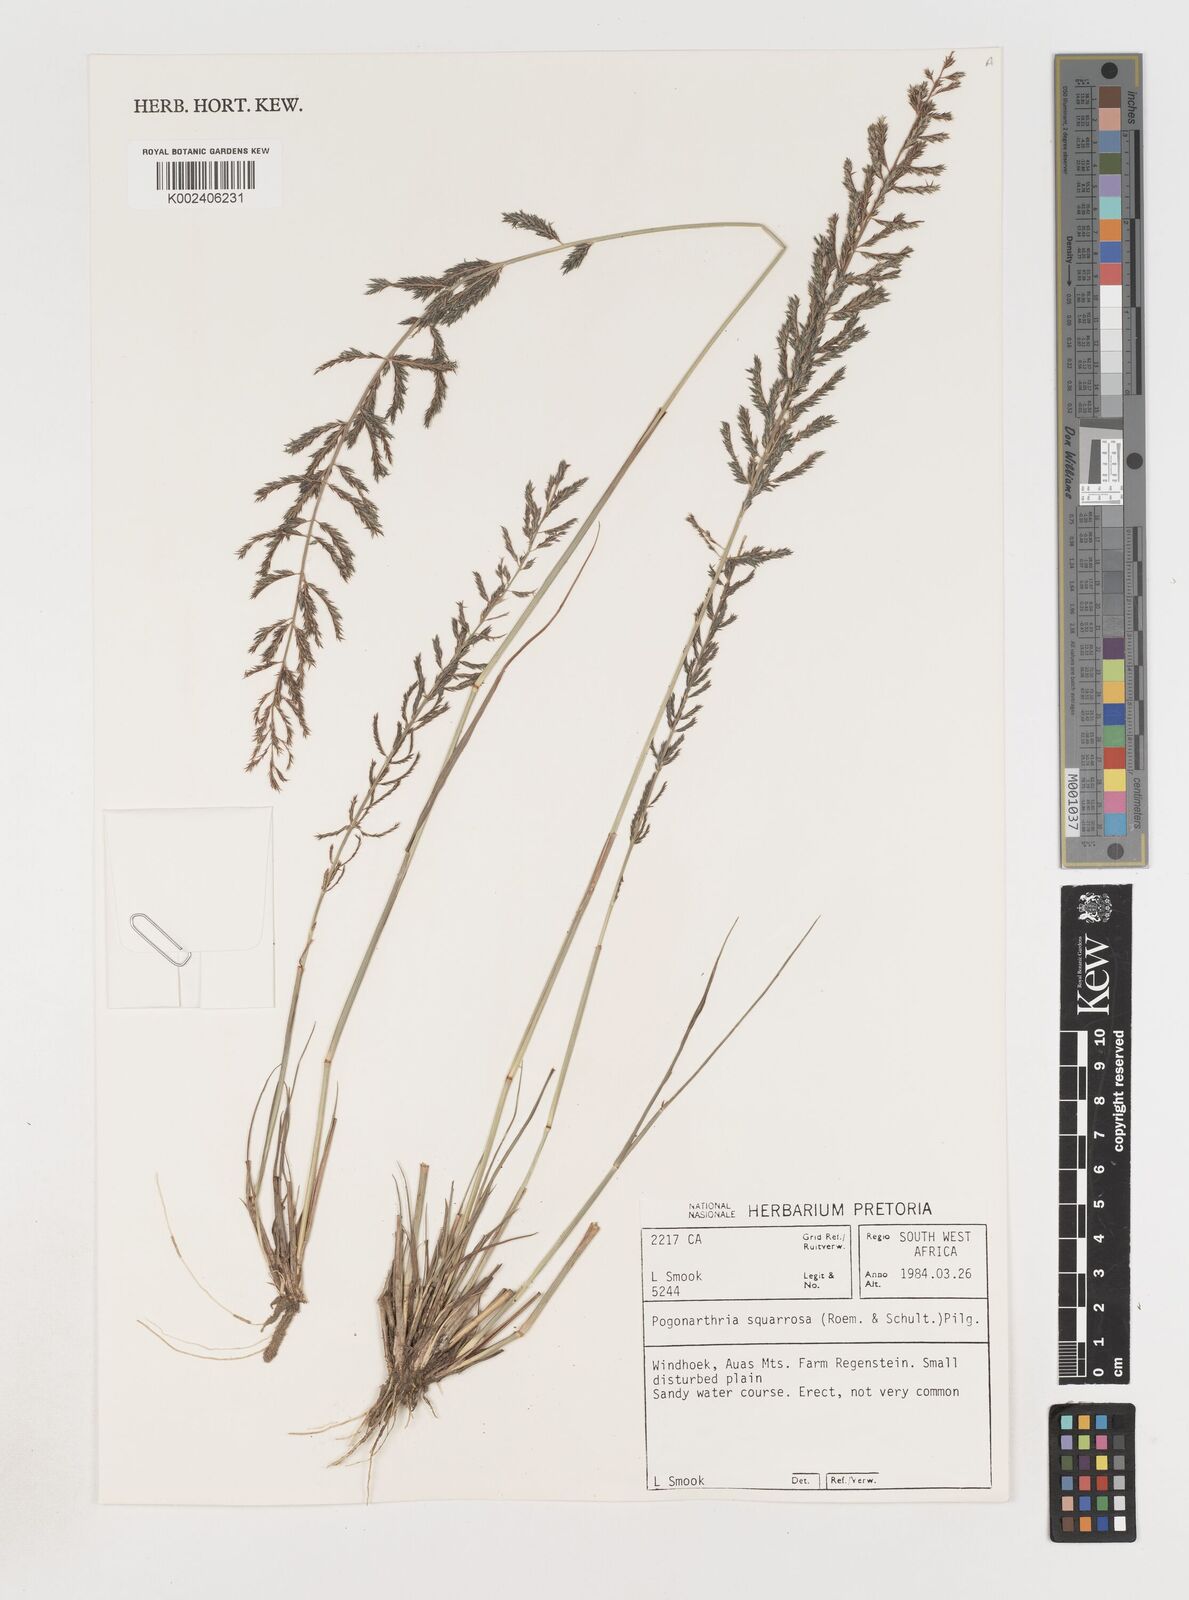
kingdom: Plantae
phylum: Tracheophyta
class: Liliopsida
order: Poales
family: Poaceae
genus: Pogonarthria
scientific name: Pogonarthria squarrosa
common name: Grass
